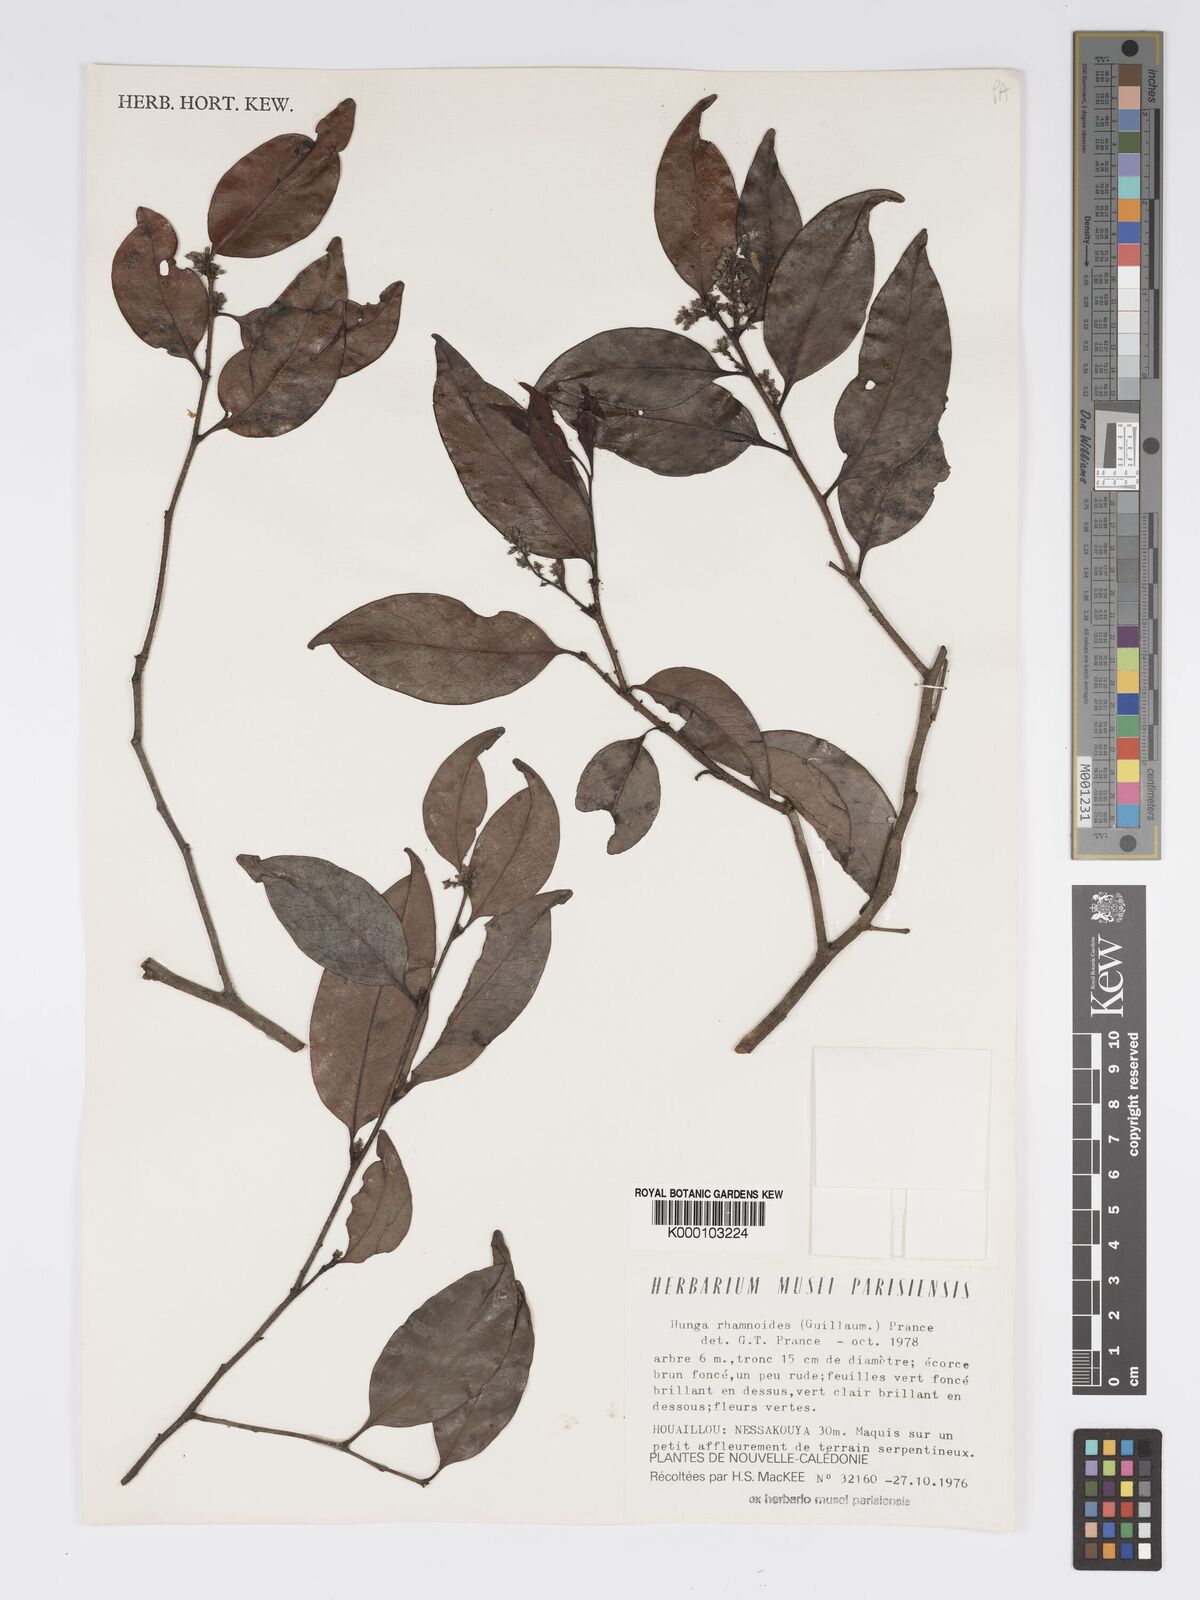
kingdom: Plantae
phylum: Tracheophyta
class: Magnoliopsida
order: Malpighiales
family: Chrysobalanaceae
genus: Hunga
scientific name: Hunga rhamnoides
